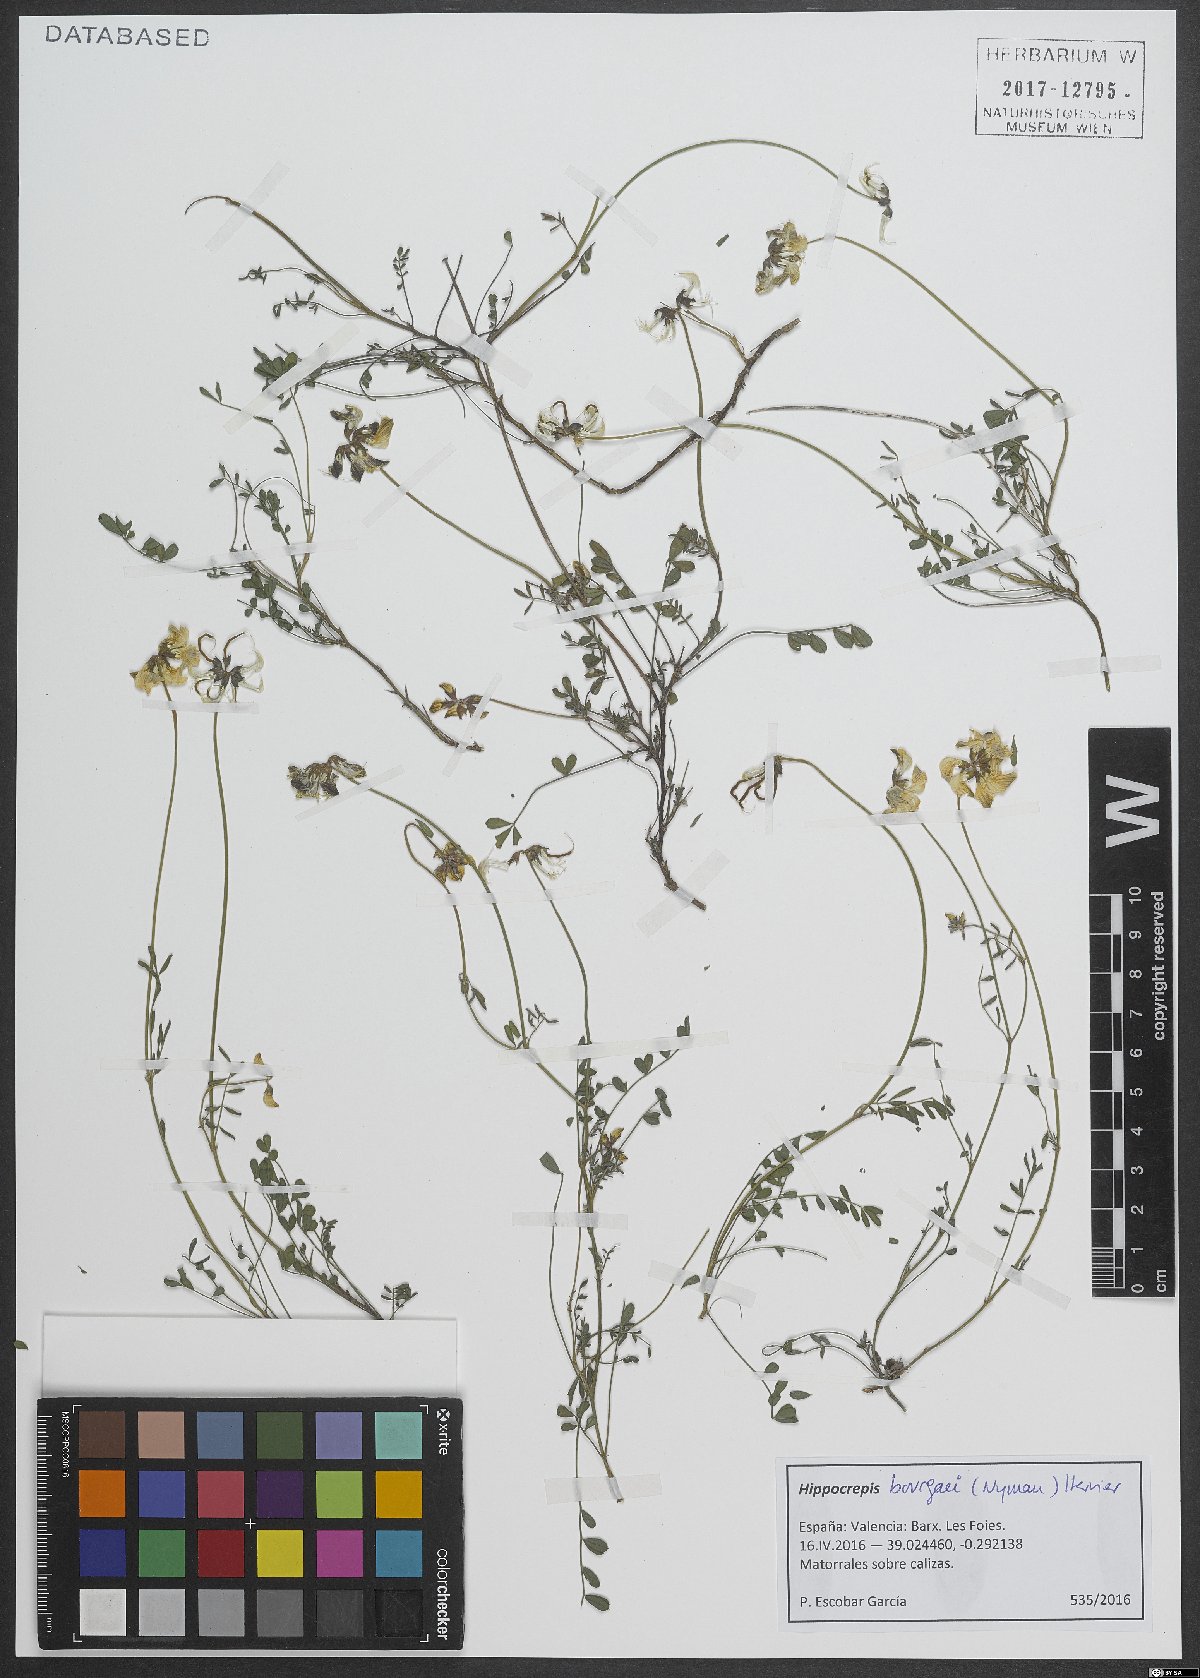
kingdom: Plantae
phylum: Tracheophyta
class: Magnoliopsida
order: Fabales
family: Fabaceae
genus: Hippocrepis
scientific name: Hippocrepis bourgaei
